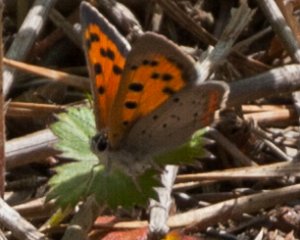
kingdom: Animalia
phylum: Arthropoda
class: Insecta
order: Lepidoptera
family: Lycaenidae
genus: Lycaena
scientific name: Lycaena phlaeas
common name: American Copper
